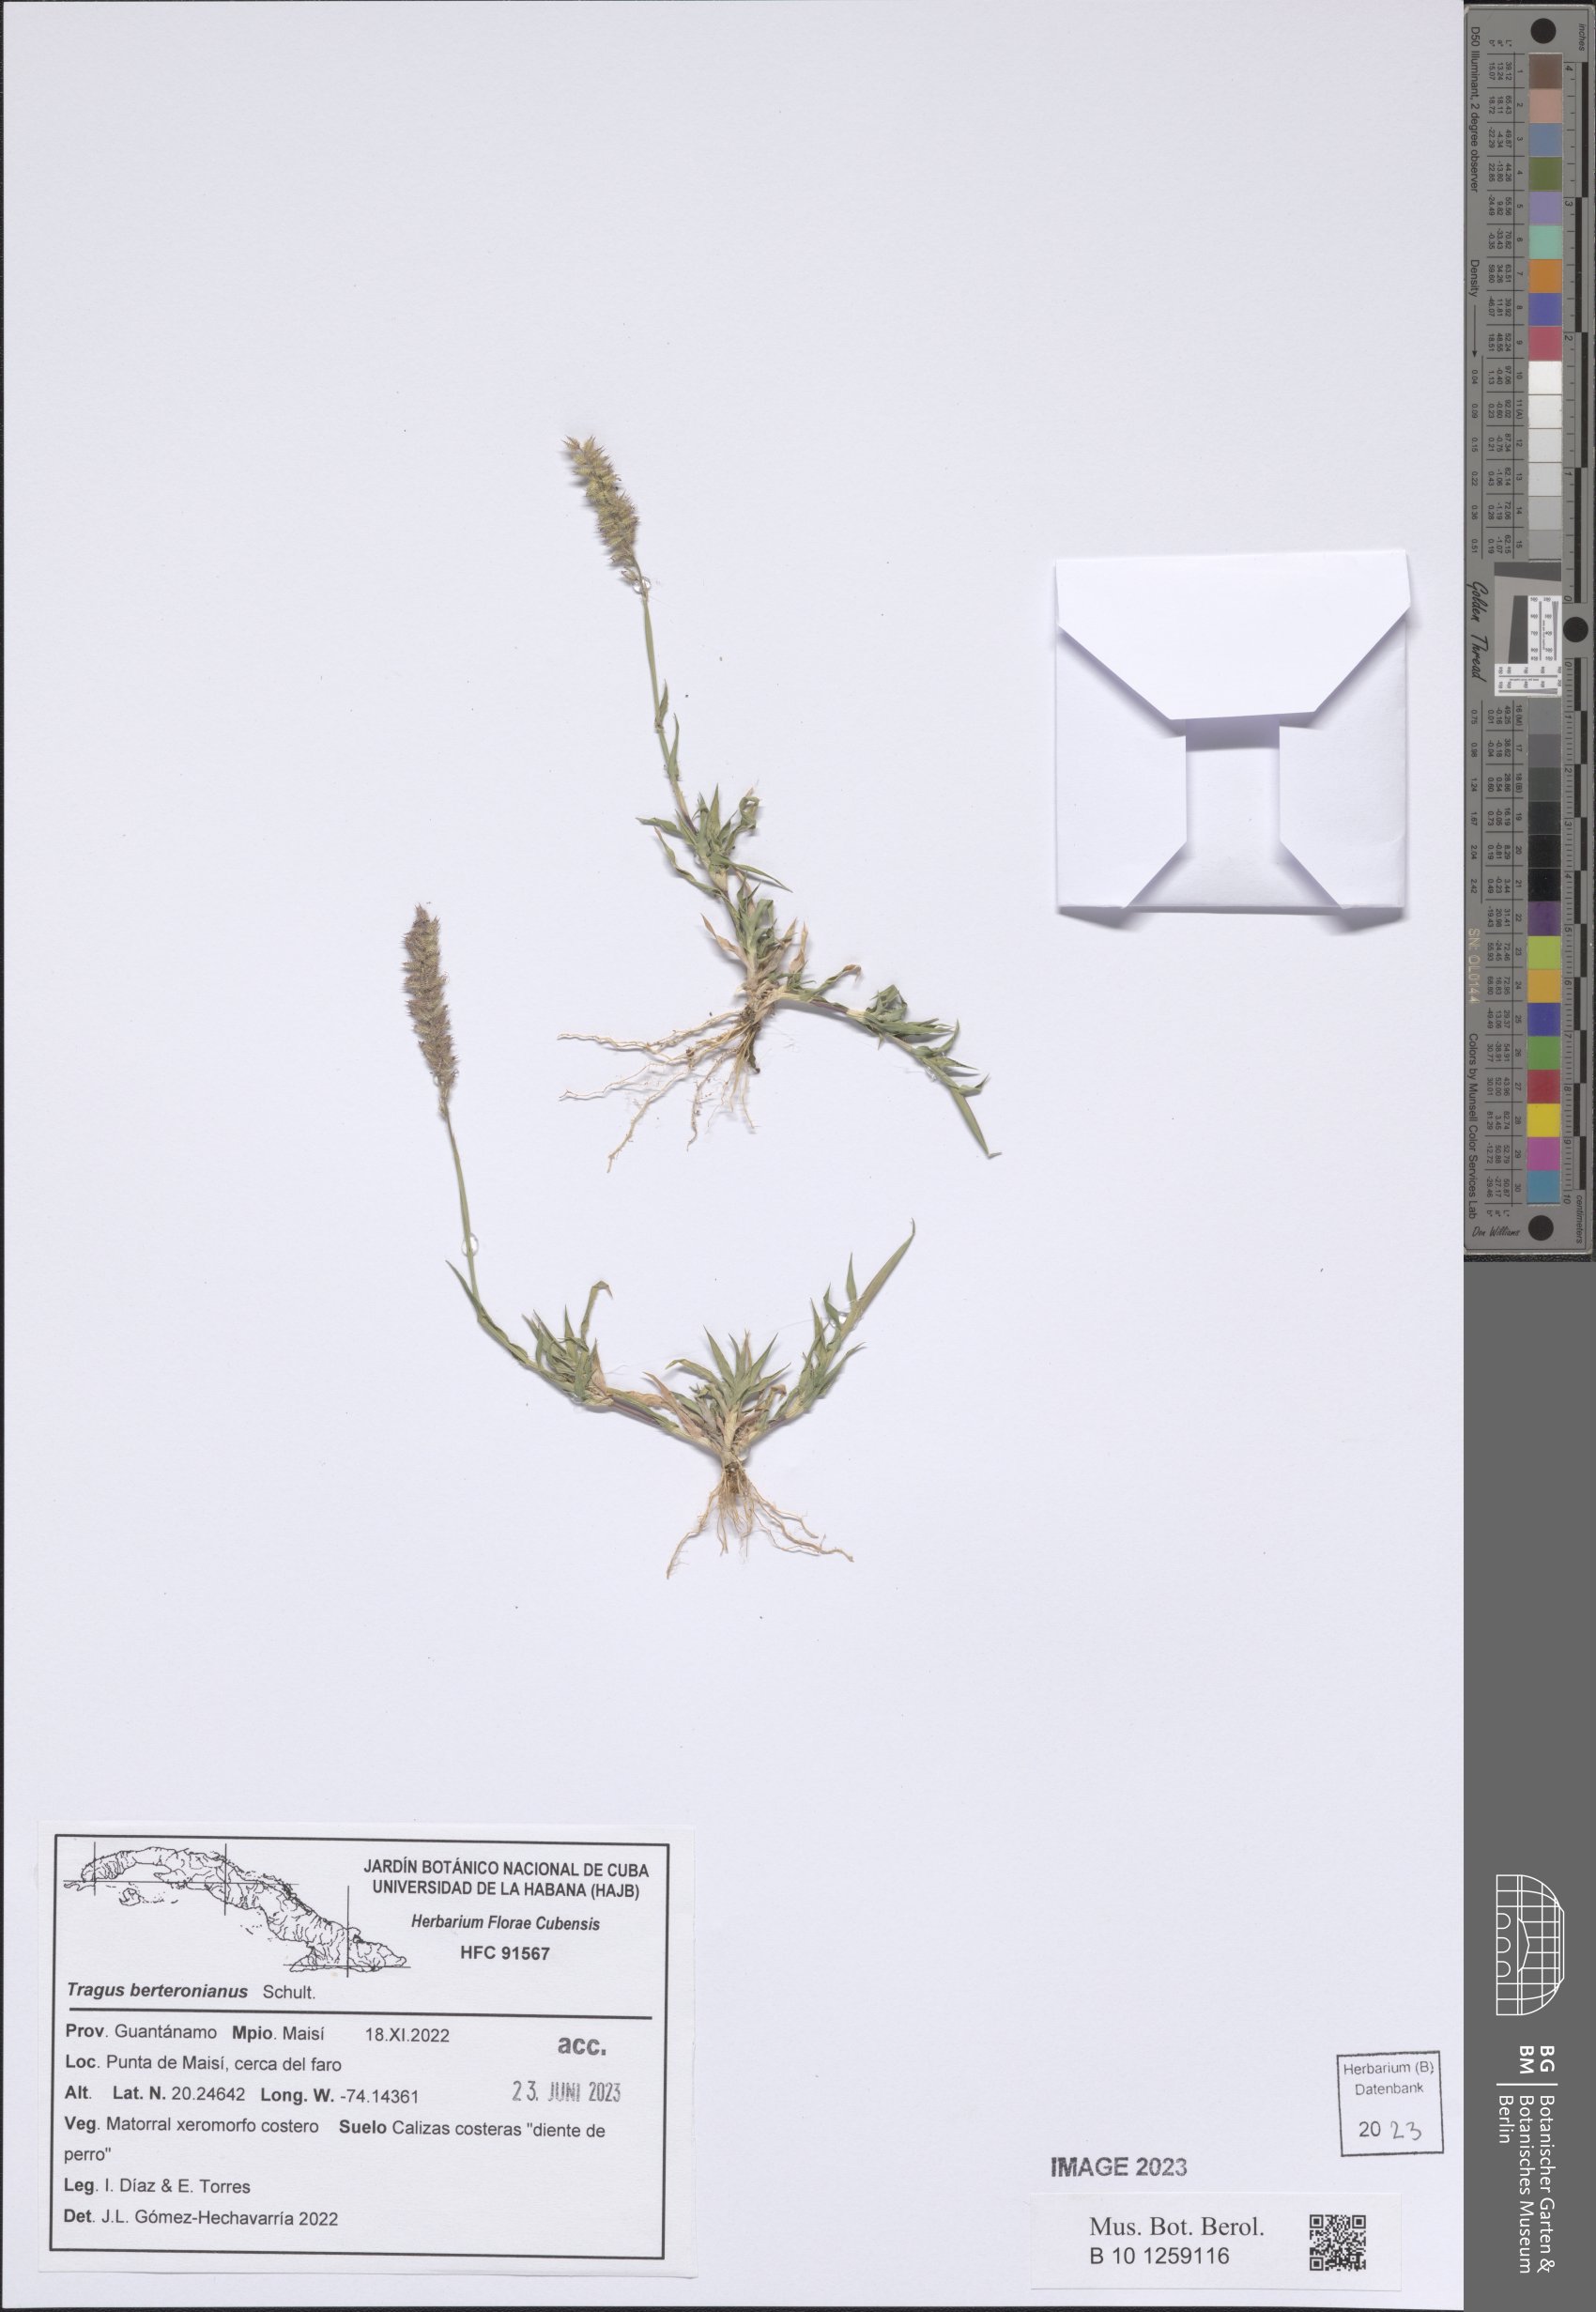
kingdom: Plantae
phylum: Tracheophyta
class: Liliopsida
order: Poales
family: Poaceae
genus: Tragus
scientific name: Tragus berteronianus
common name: African bur-grass
